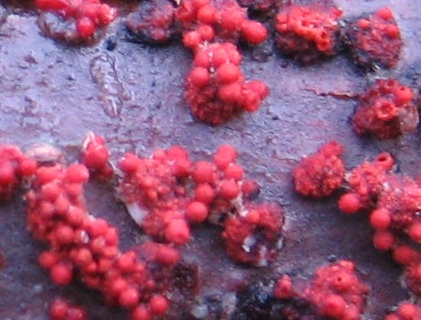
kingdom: Fungi
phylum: Ascomycota
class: Sordariomycetes
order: Hypocreales
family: Nectriaceae
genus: Nectria
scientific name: Nectria cinnabarina
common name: almindelig cinnobersvamp
